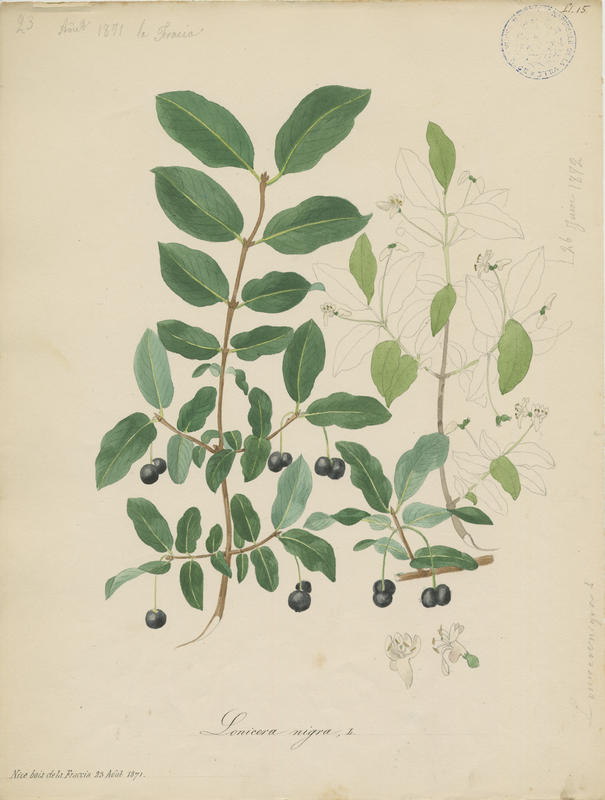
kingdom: Plantae
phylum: Tracheophyta
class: Magnoliopsida
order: Dipsacales
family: Caprifoliaceae
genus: Lonicera
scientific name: Lonicera nigra
